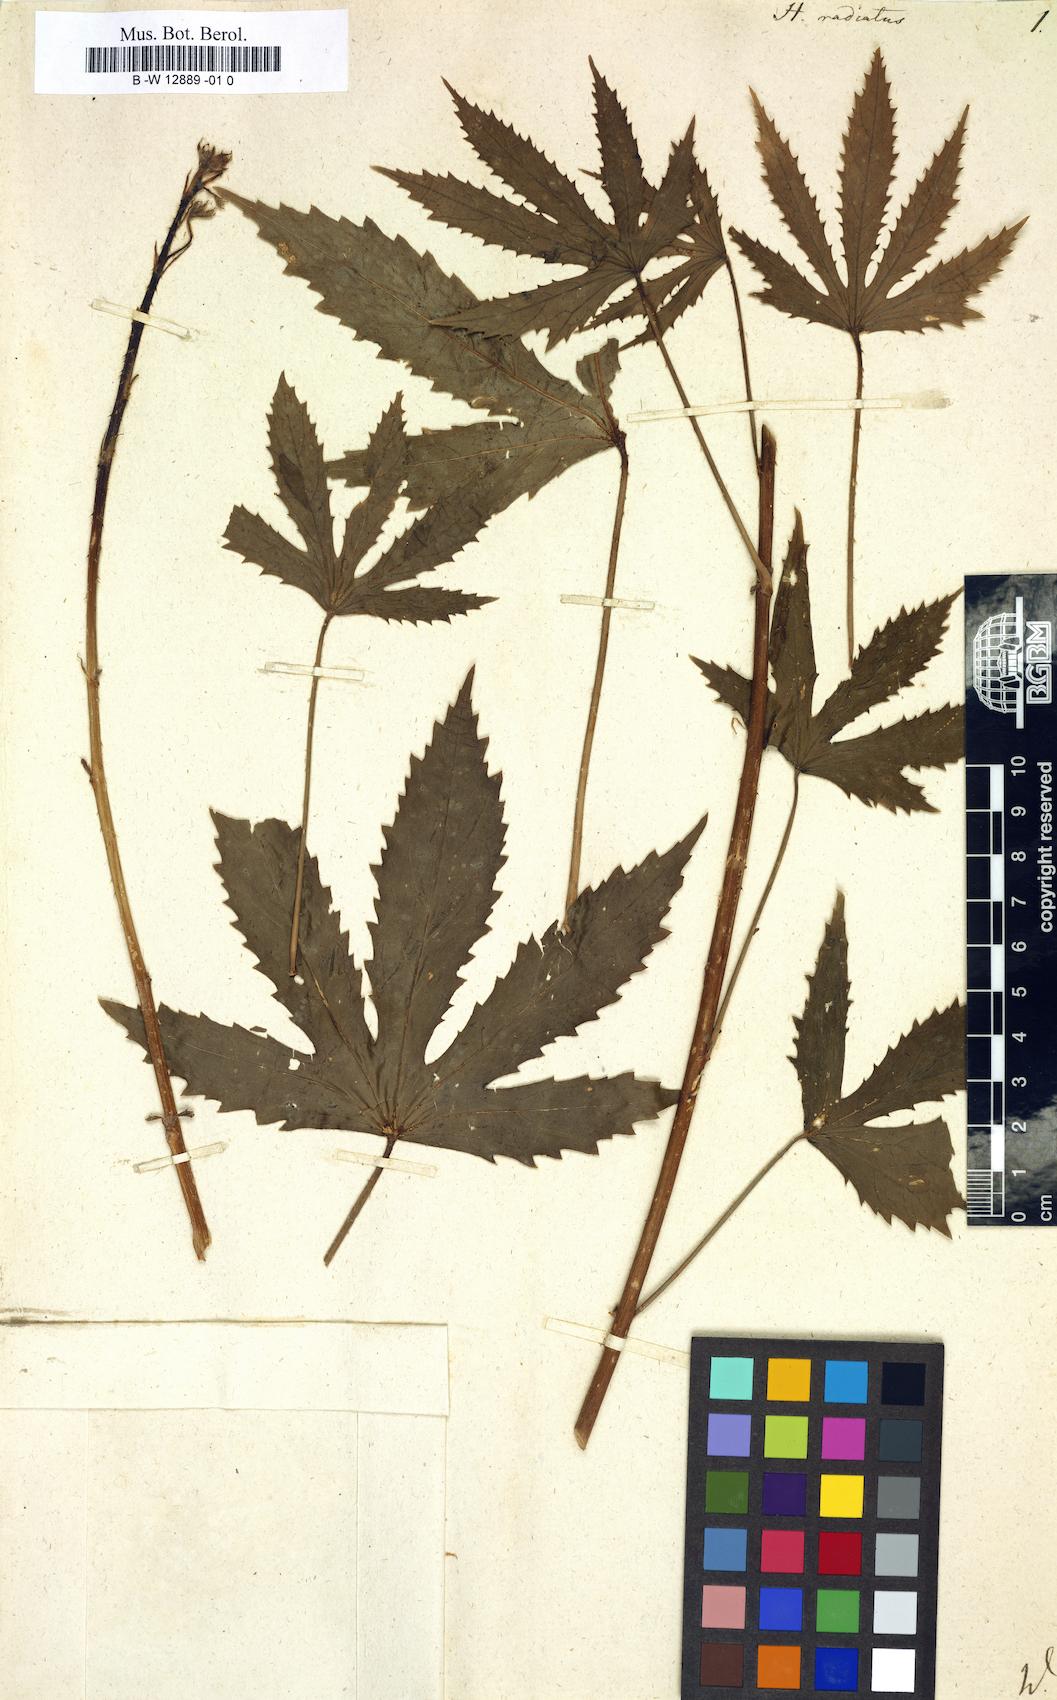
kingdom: Plantae
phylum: Tracheophyta
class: Magnoliopsida
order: Malvales
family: Malvaceae
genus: Hibiscus
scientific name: Hibiscus radiatus
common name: Monarch rosemallow
